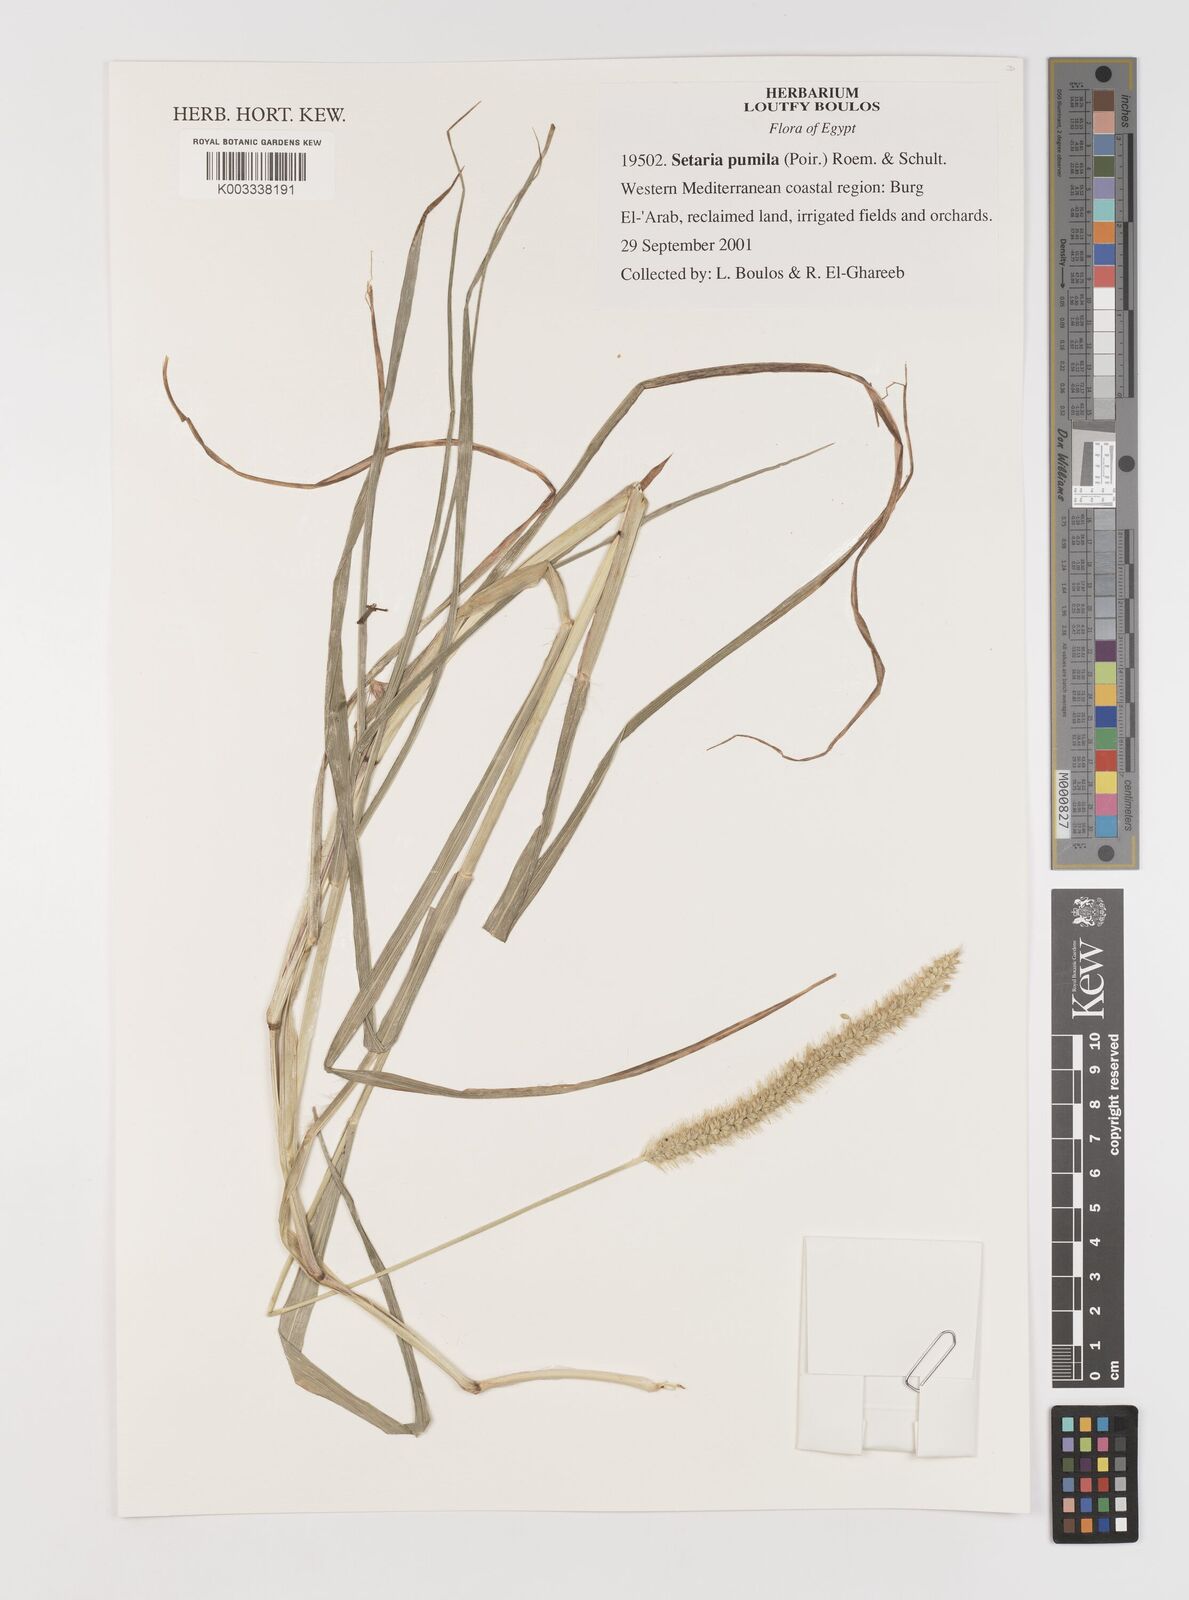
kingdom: Plantae
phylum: Tracheophyta
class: Liliopsida
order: Poales
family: Poaceae
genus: Setaria
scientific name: Setaria pumila
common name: Yellow bristle-grass
